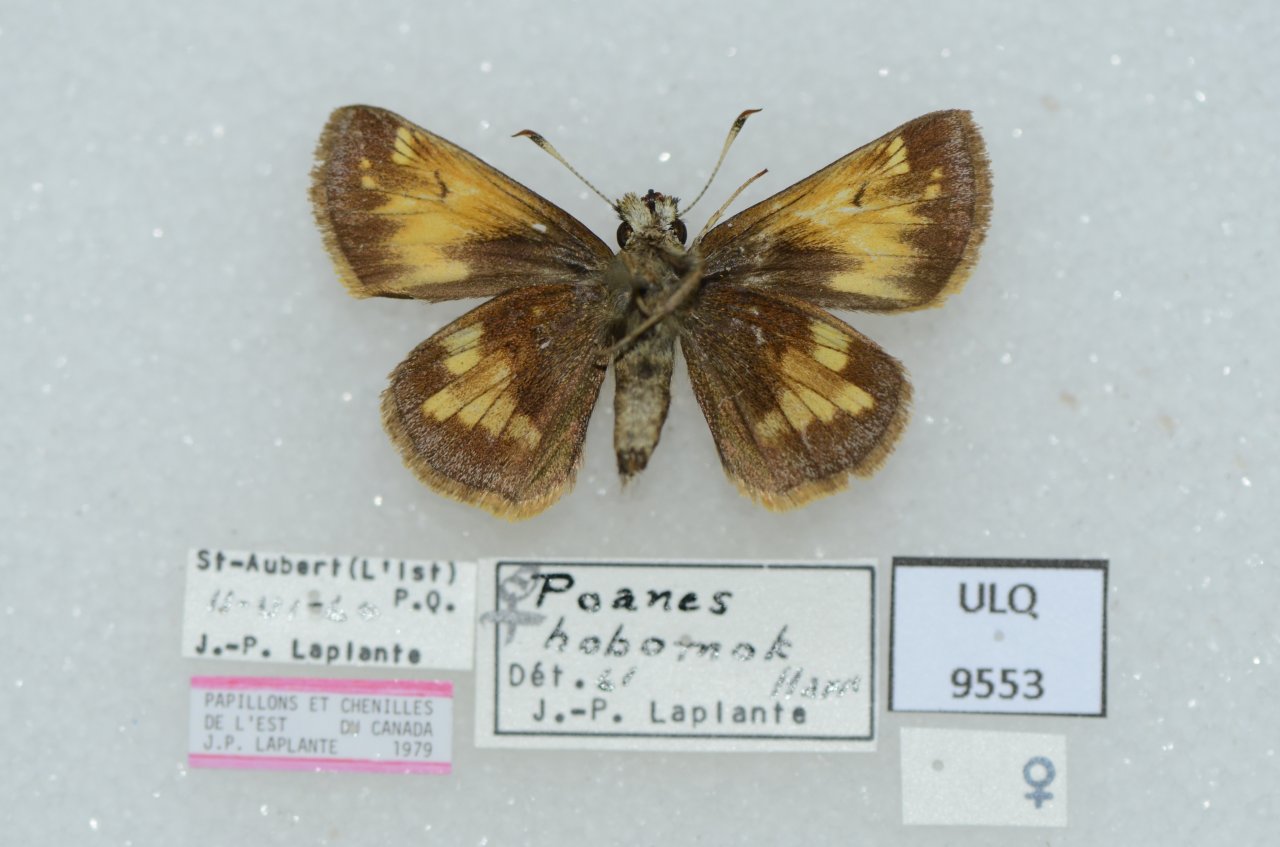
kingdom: Animalia
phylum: Arthropoda
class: Insecta
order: Lepidoptera
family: Hesperiidae
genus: Lon
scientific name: Lon hobomok
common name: Hobomok Skipper
